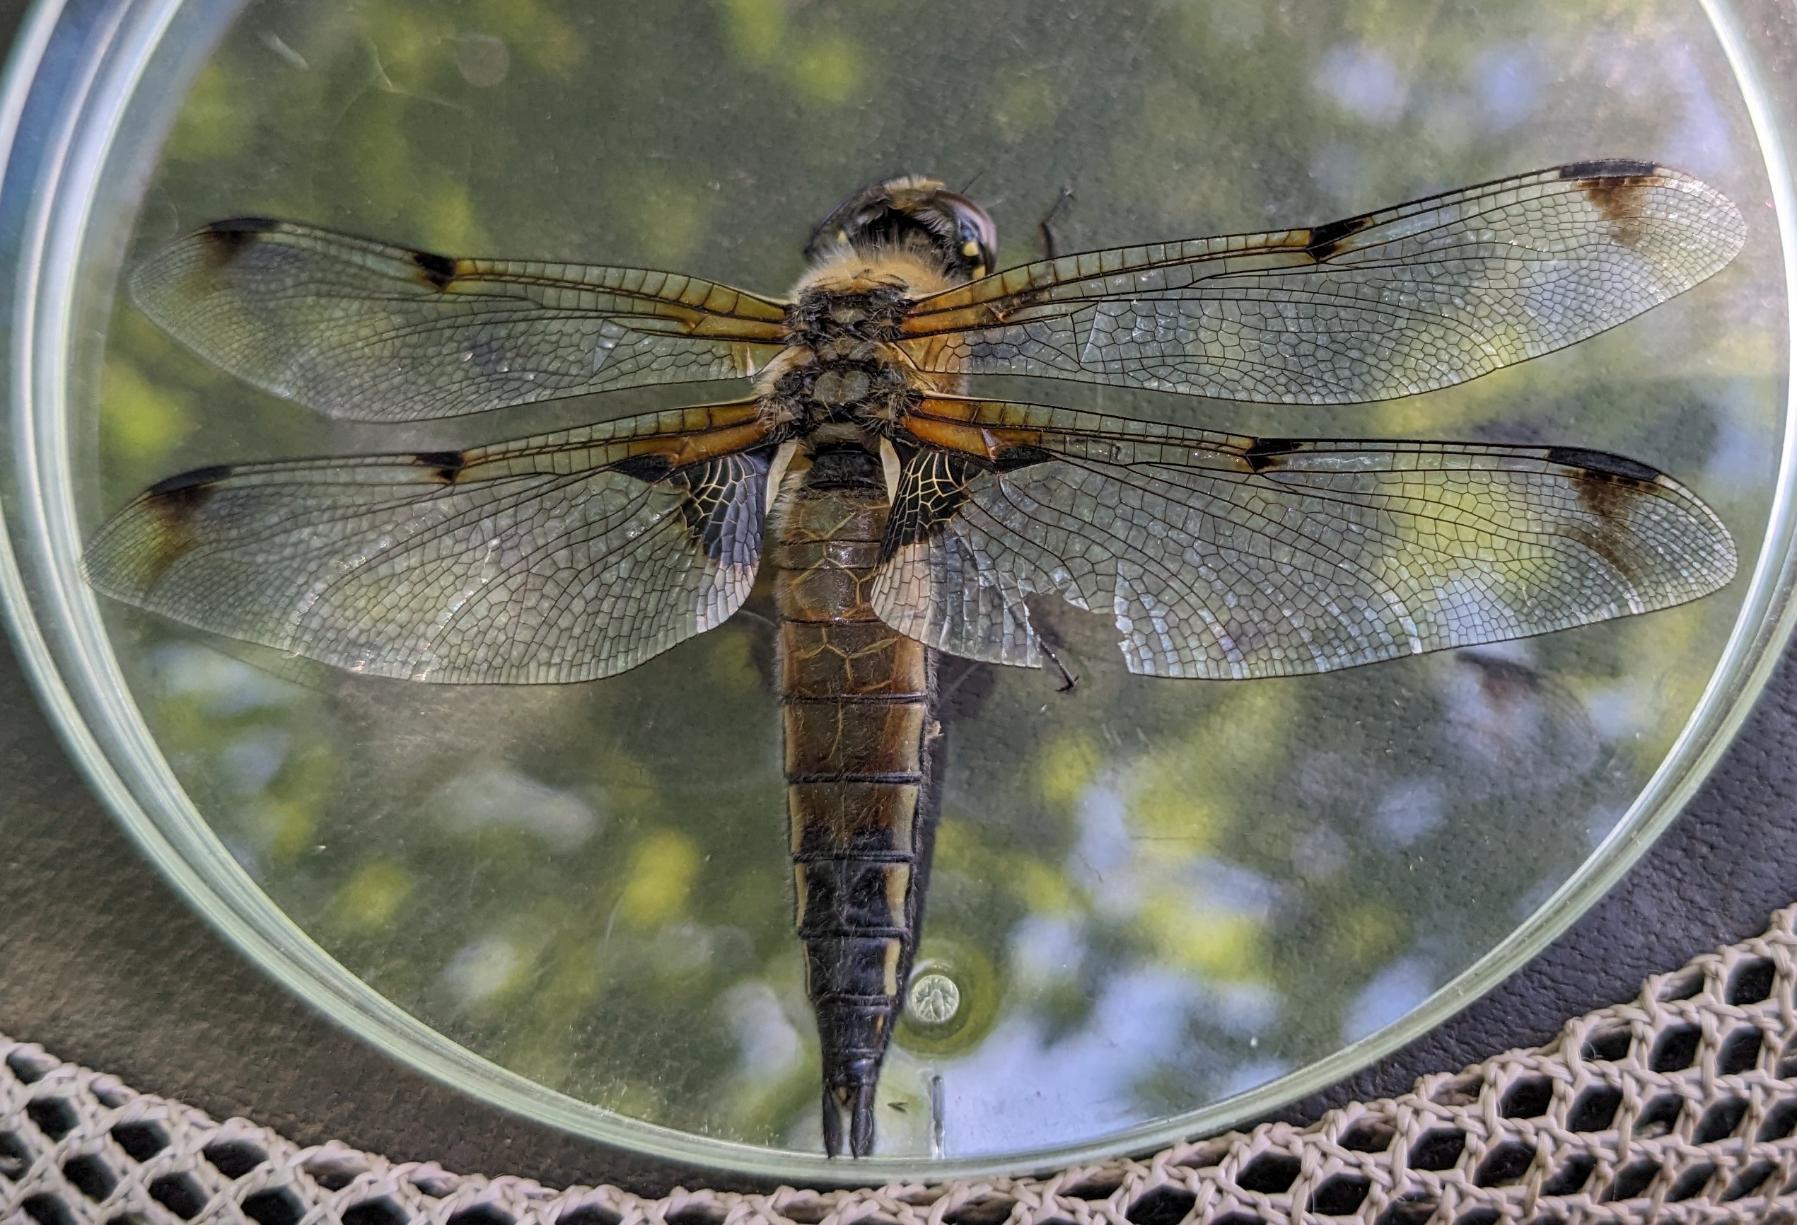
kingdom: Animalia
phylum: Arthropoda
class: Insecta
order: Odonata
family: Libellulidae
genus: Libellula
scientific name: Libellula quadrimaculata
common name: Fireplettet libel
